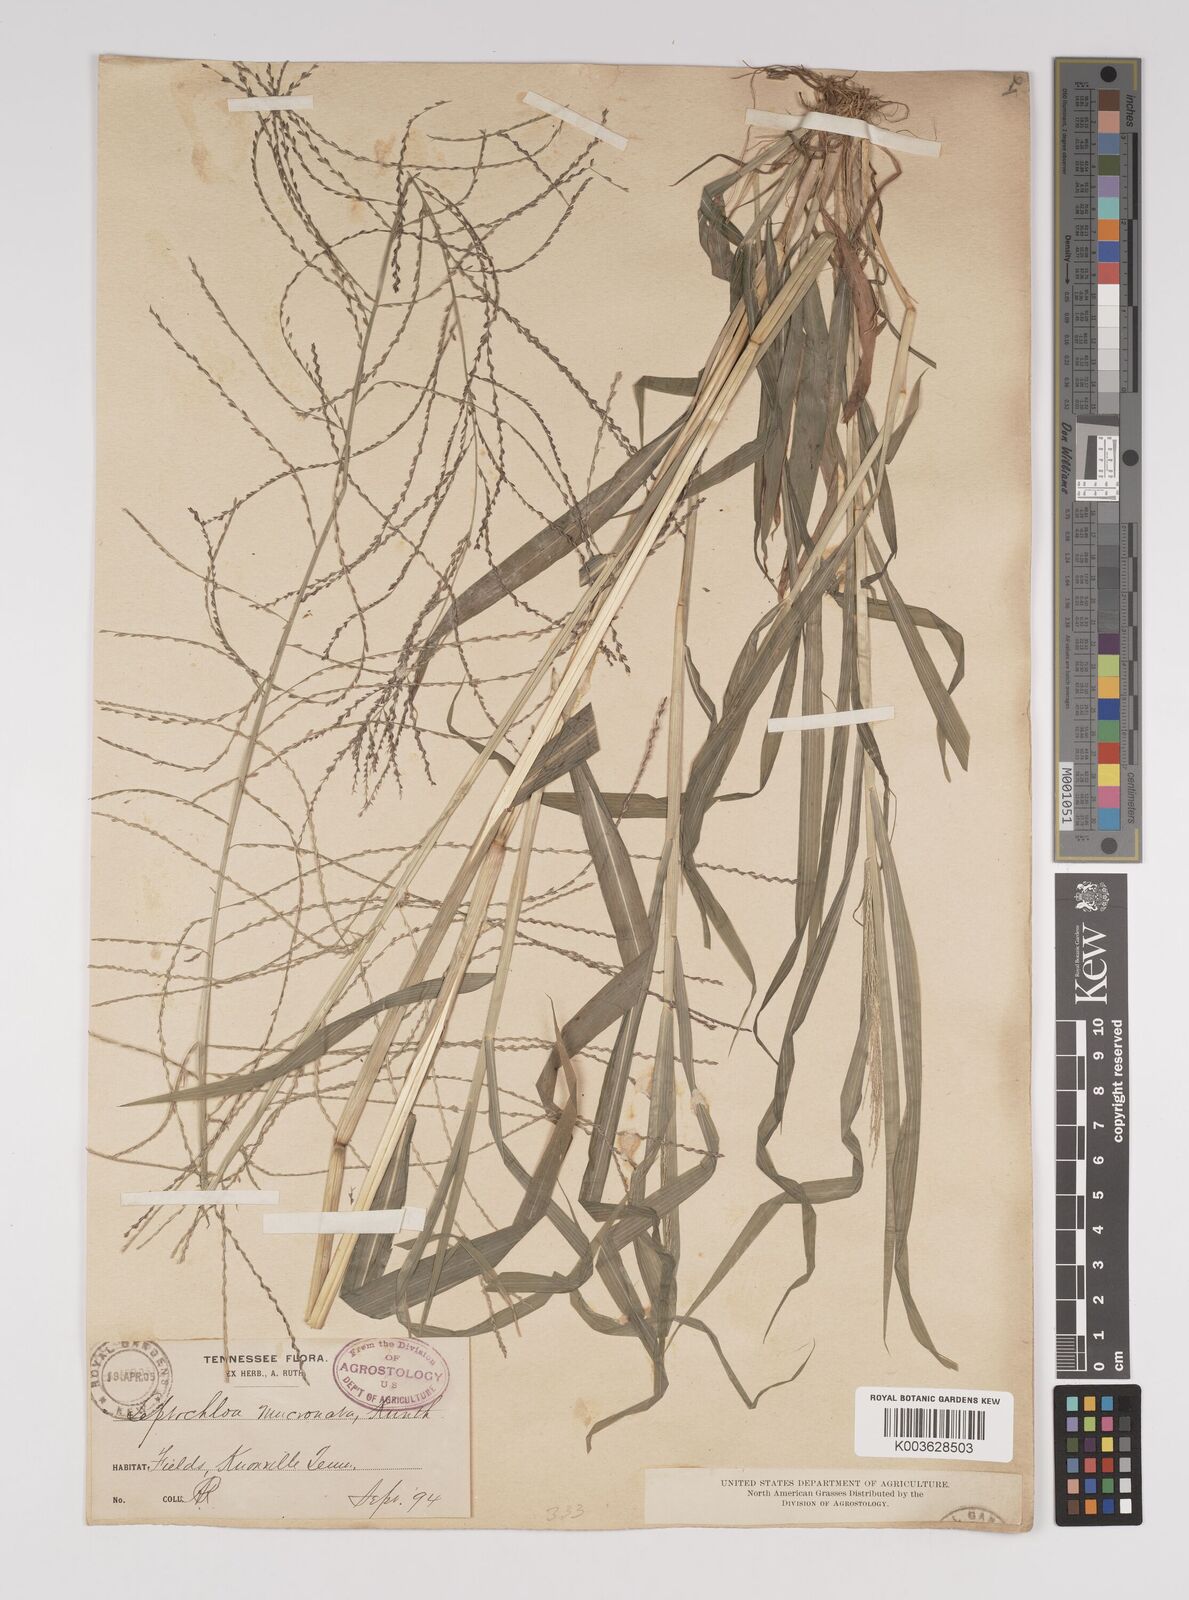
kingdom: Plantae
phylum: Tracheophyta
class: Liliopsida
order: Poales
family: Poaceae
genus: Leptochloa
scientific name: Leptochloa panicea
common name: Mucronate sprangletop
